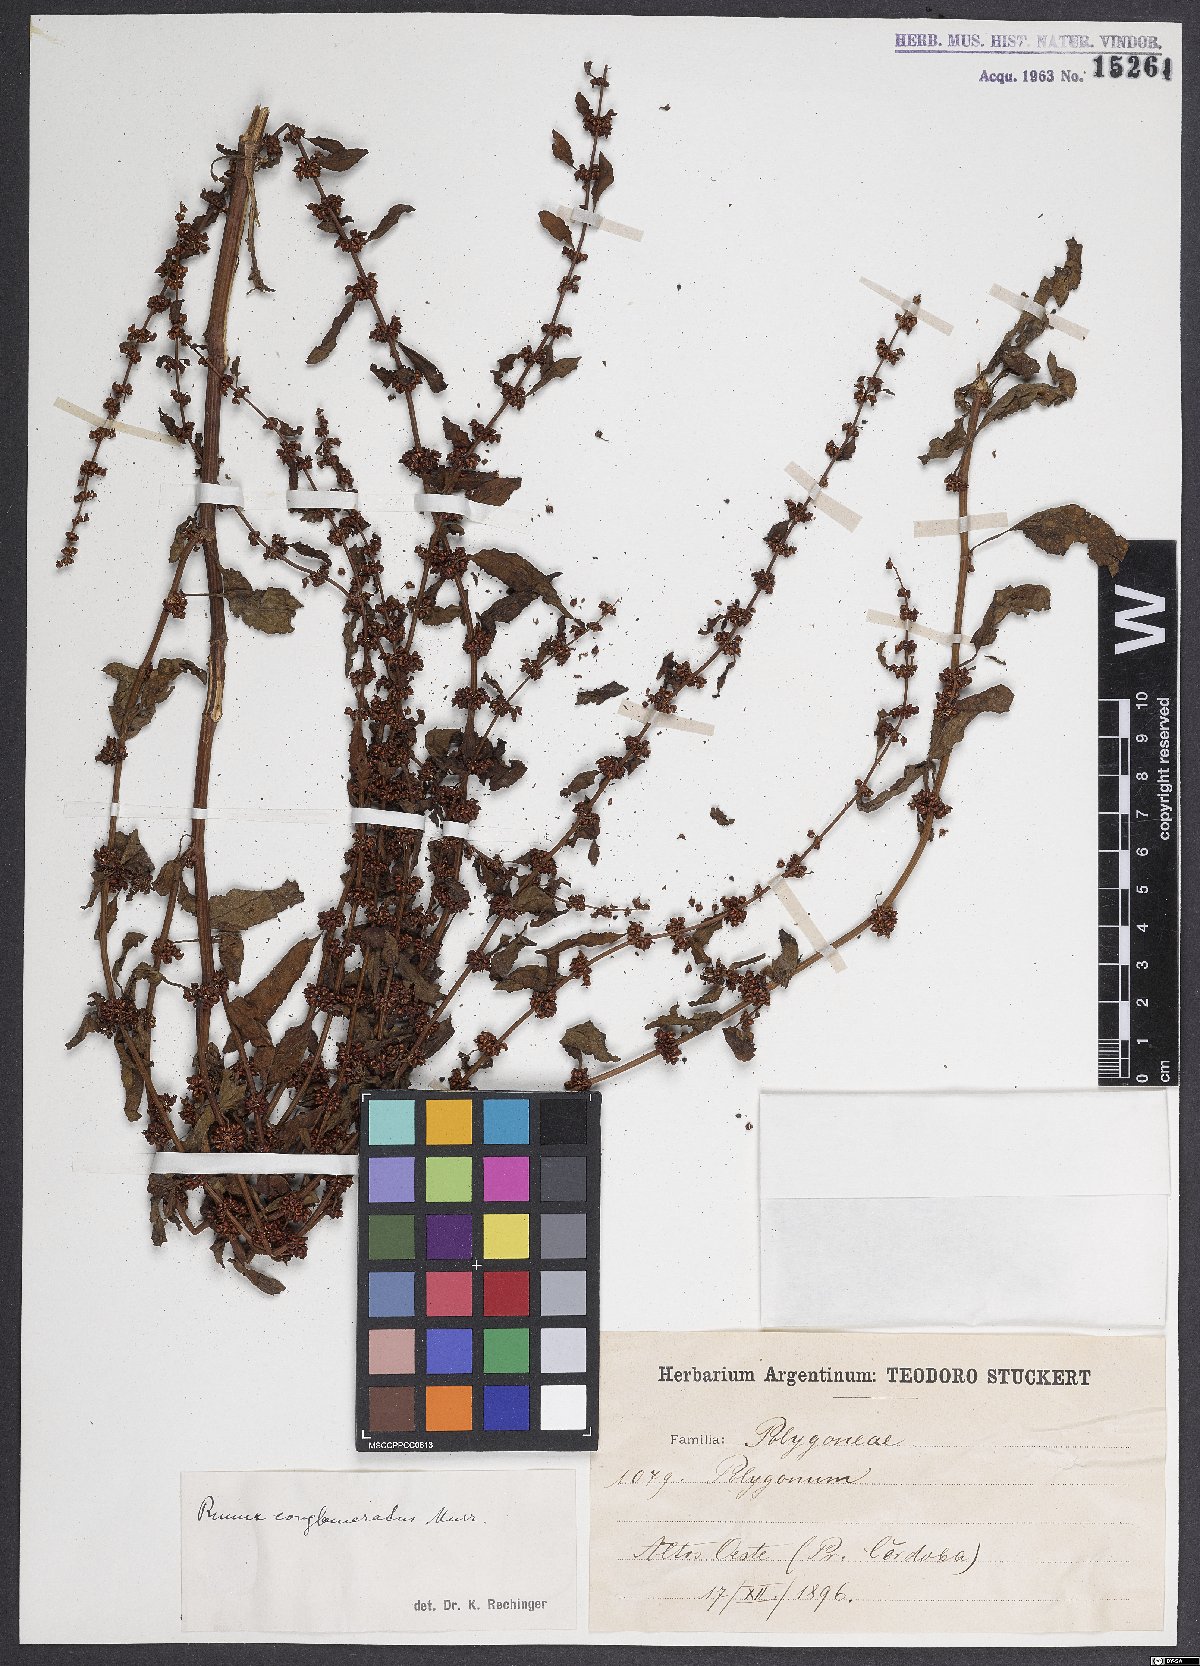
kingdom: Plantae
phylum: Tracheophyta
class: Magnoliopsida
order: Caryophyllales
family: Polygonaceae
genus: Rumex
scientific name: Rumex conglomeratus
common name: Clustered dock
